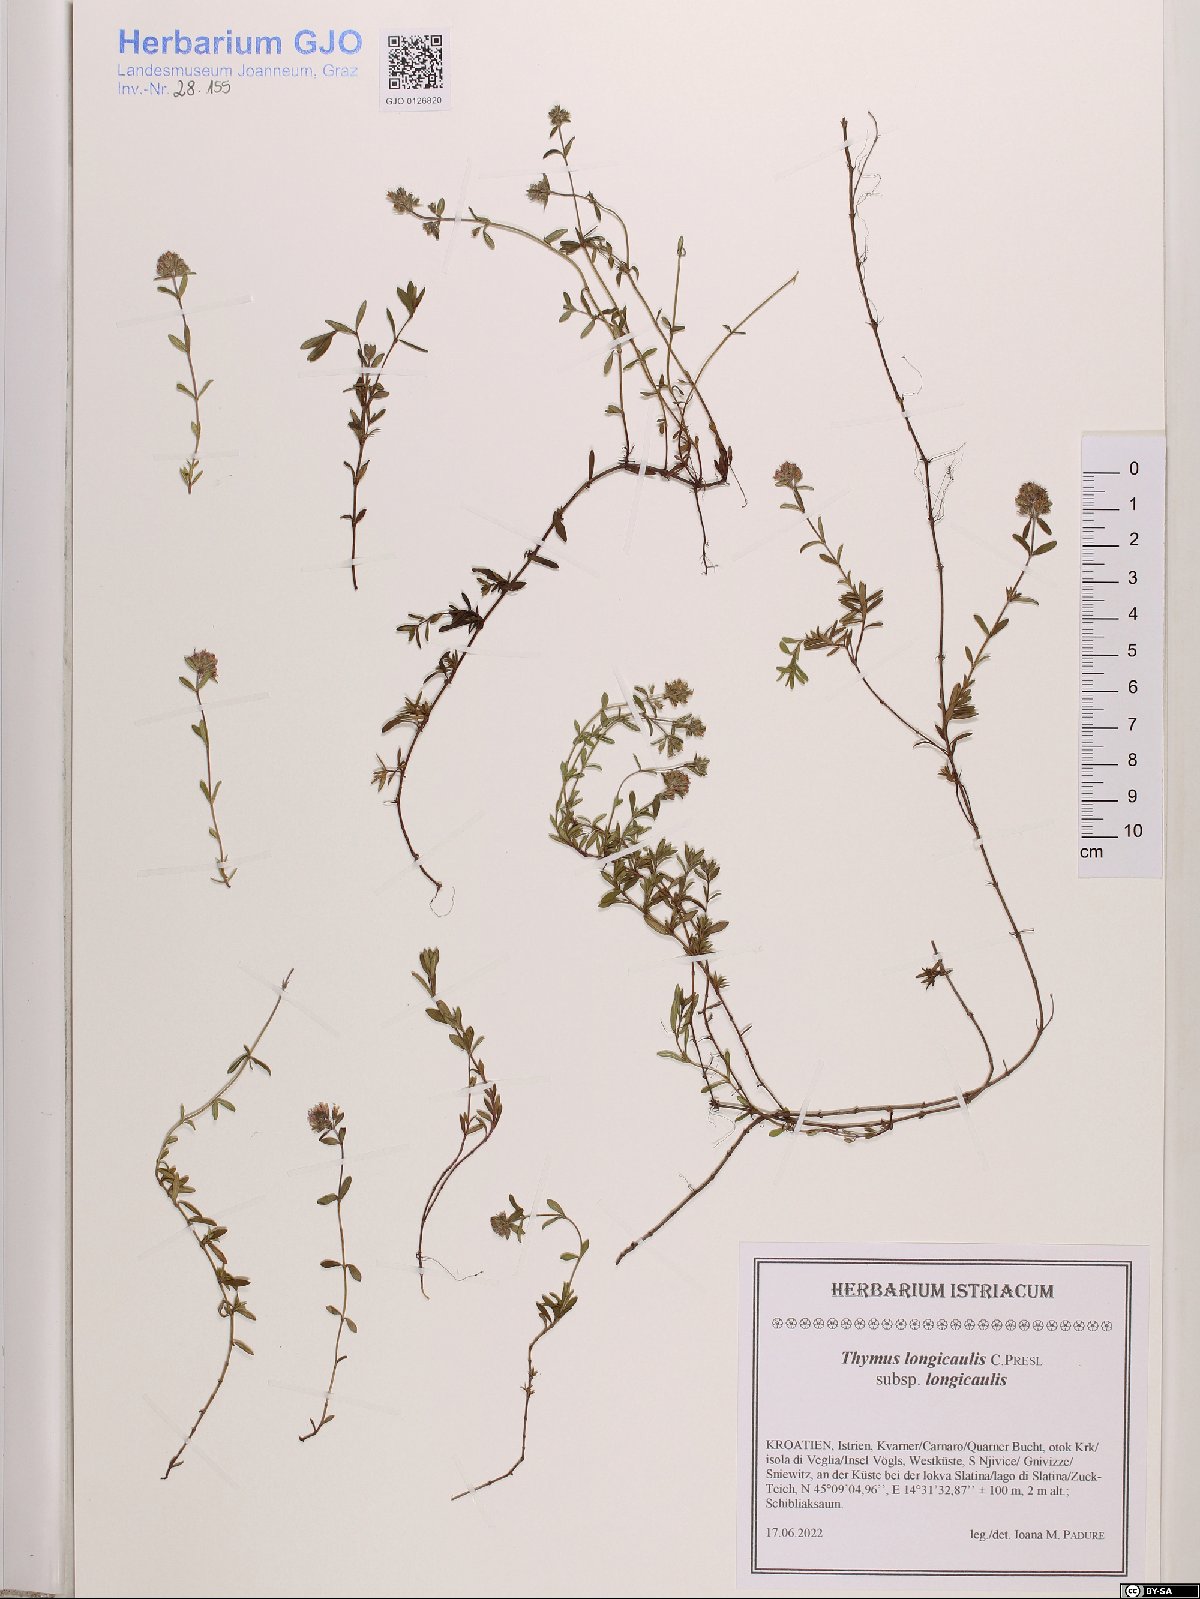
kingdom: Plantae
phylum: Tracheophyta
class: Magnoliopsida
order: Lamiales
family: Lamiaceae
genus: Thymus
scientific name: Thymus longicaulis
